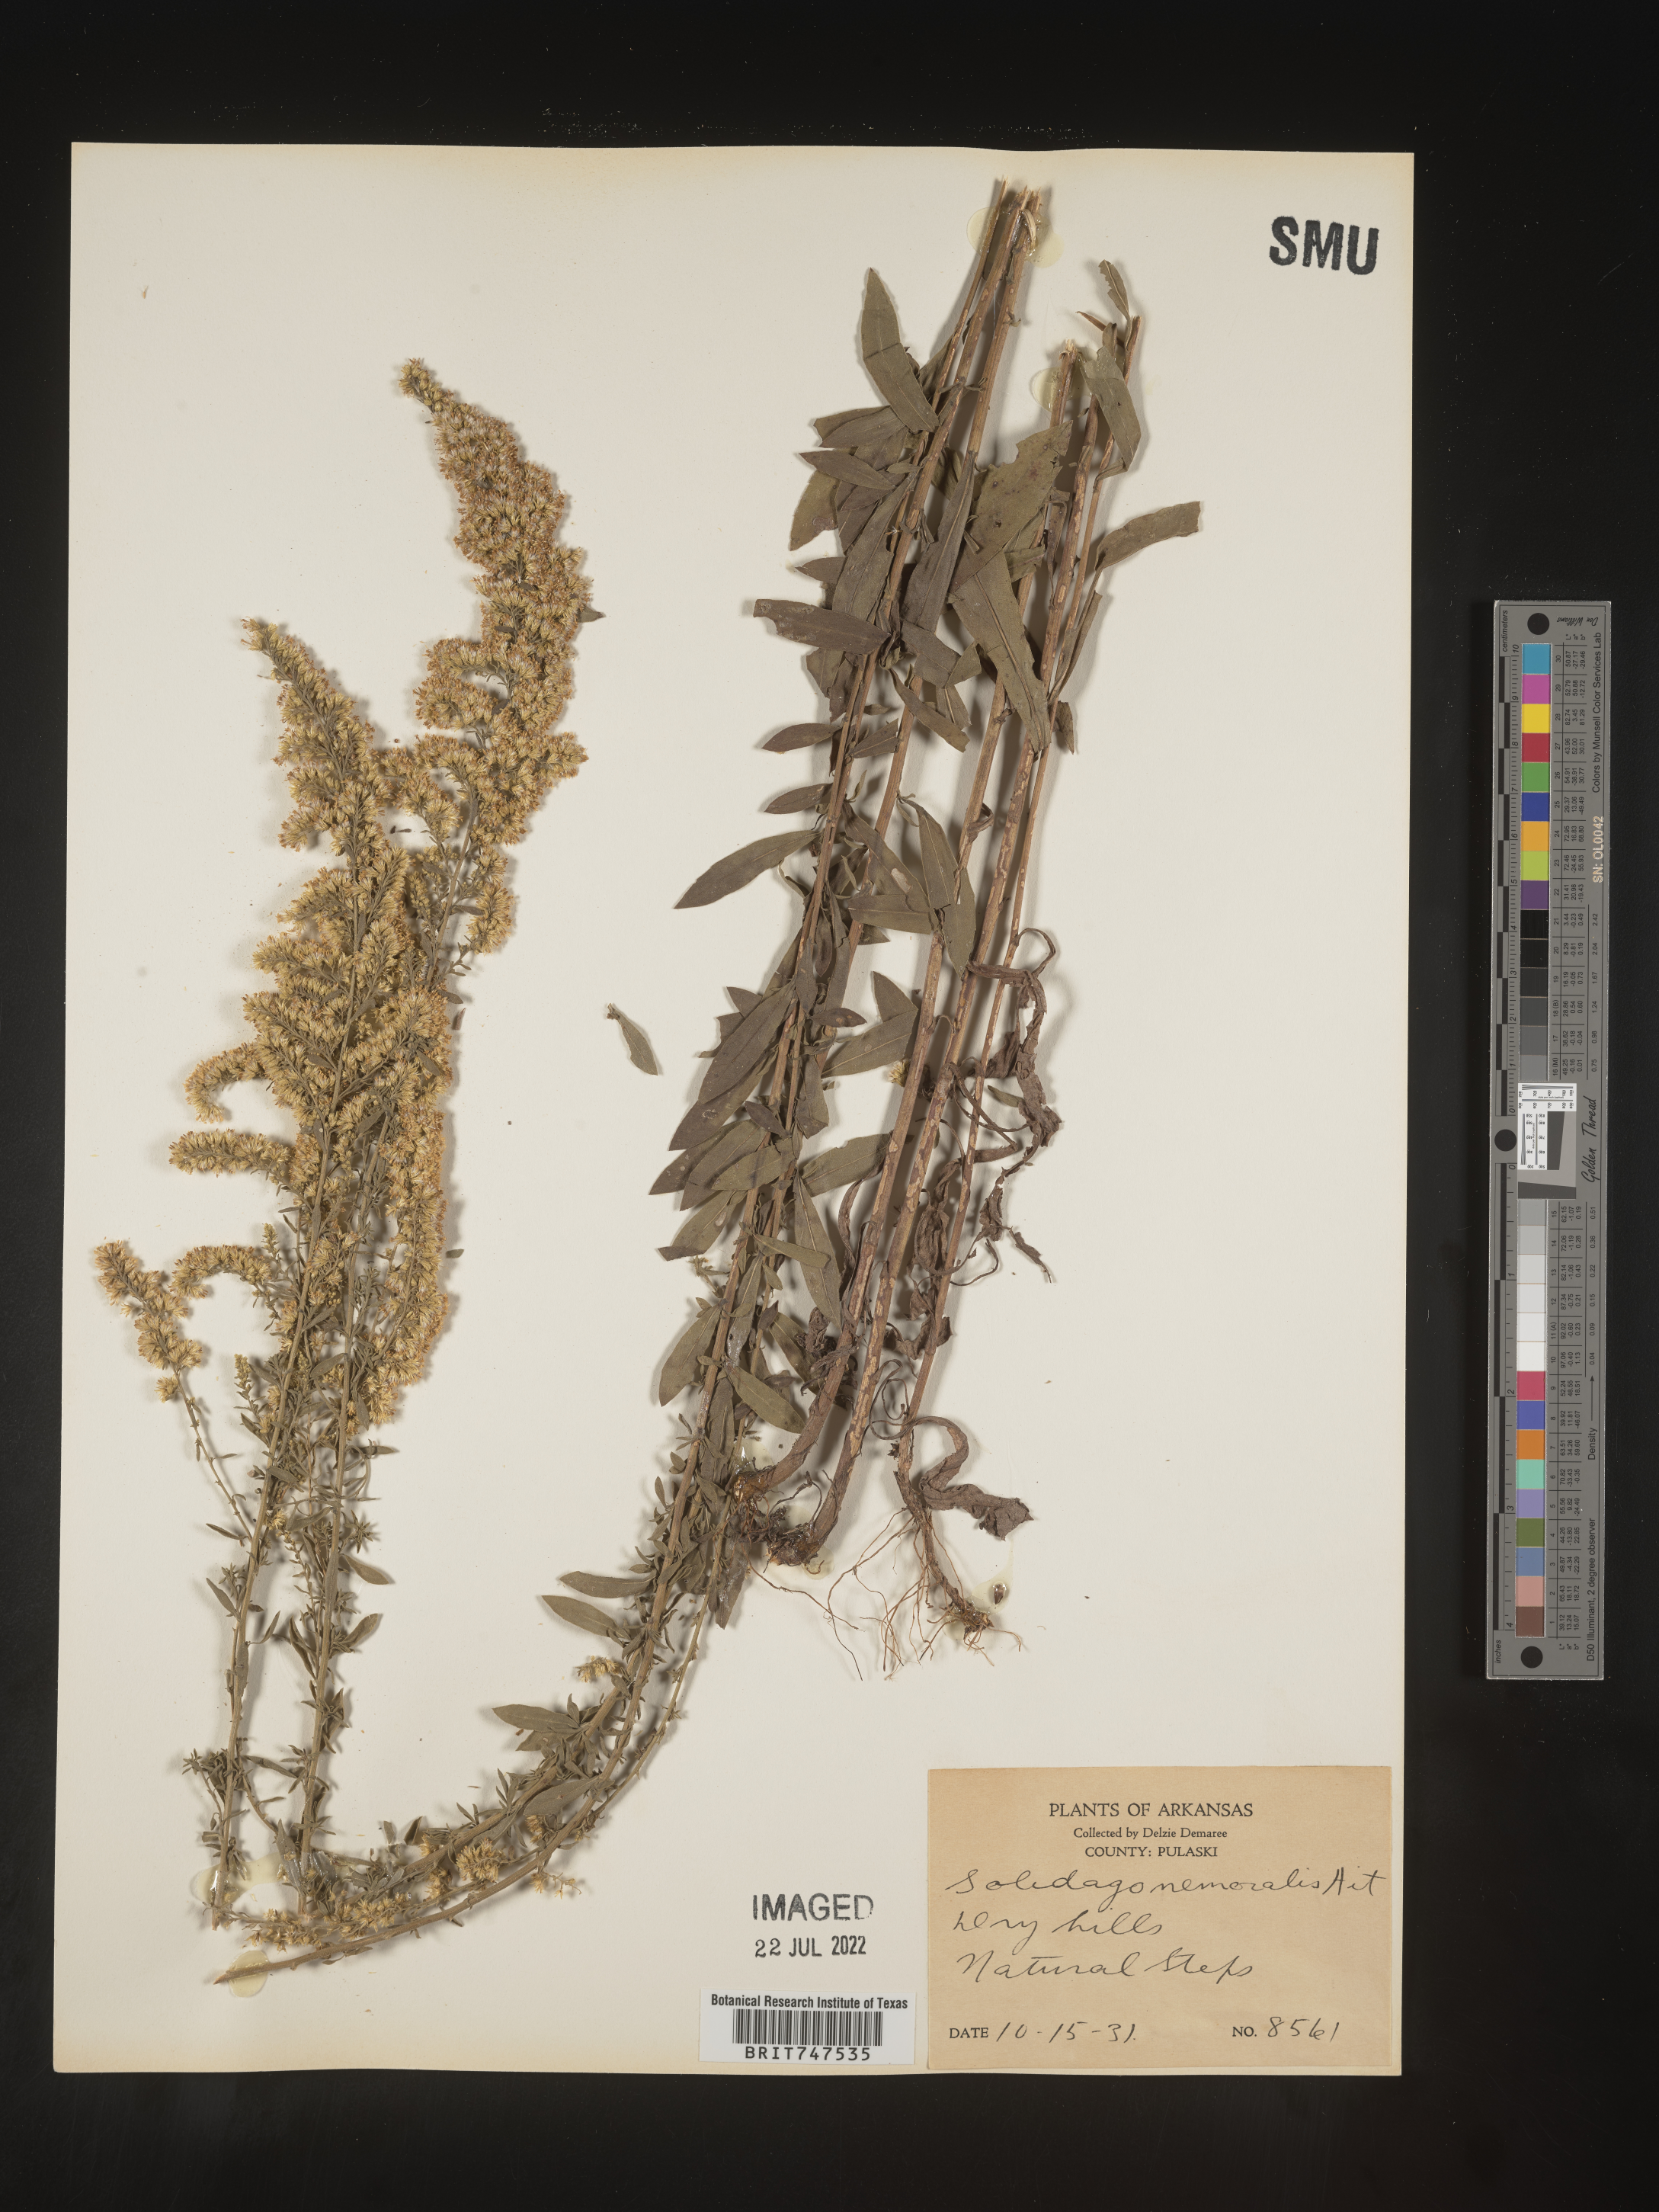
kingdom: Plantae
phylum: Tracheophyta
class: Magnoliopsida
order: Asterales
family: Asteraceae
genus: Solidago
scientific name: Solidago nemoralis
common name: Grey goldenrod
